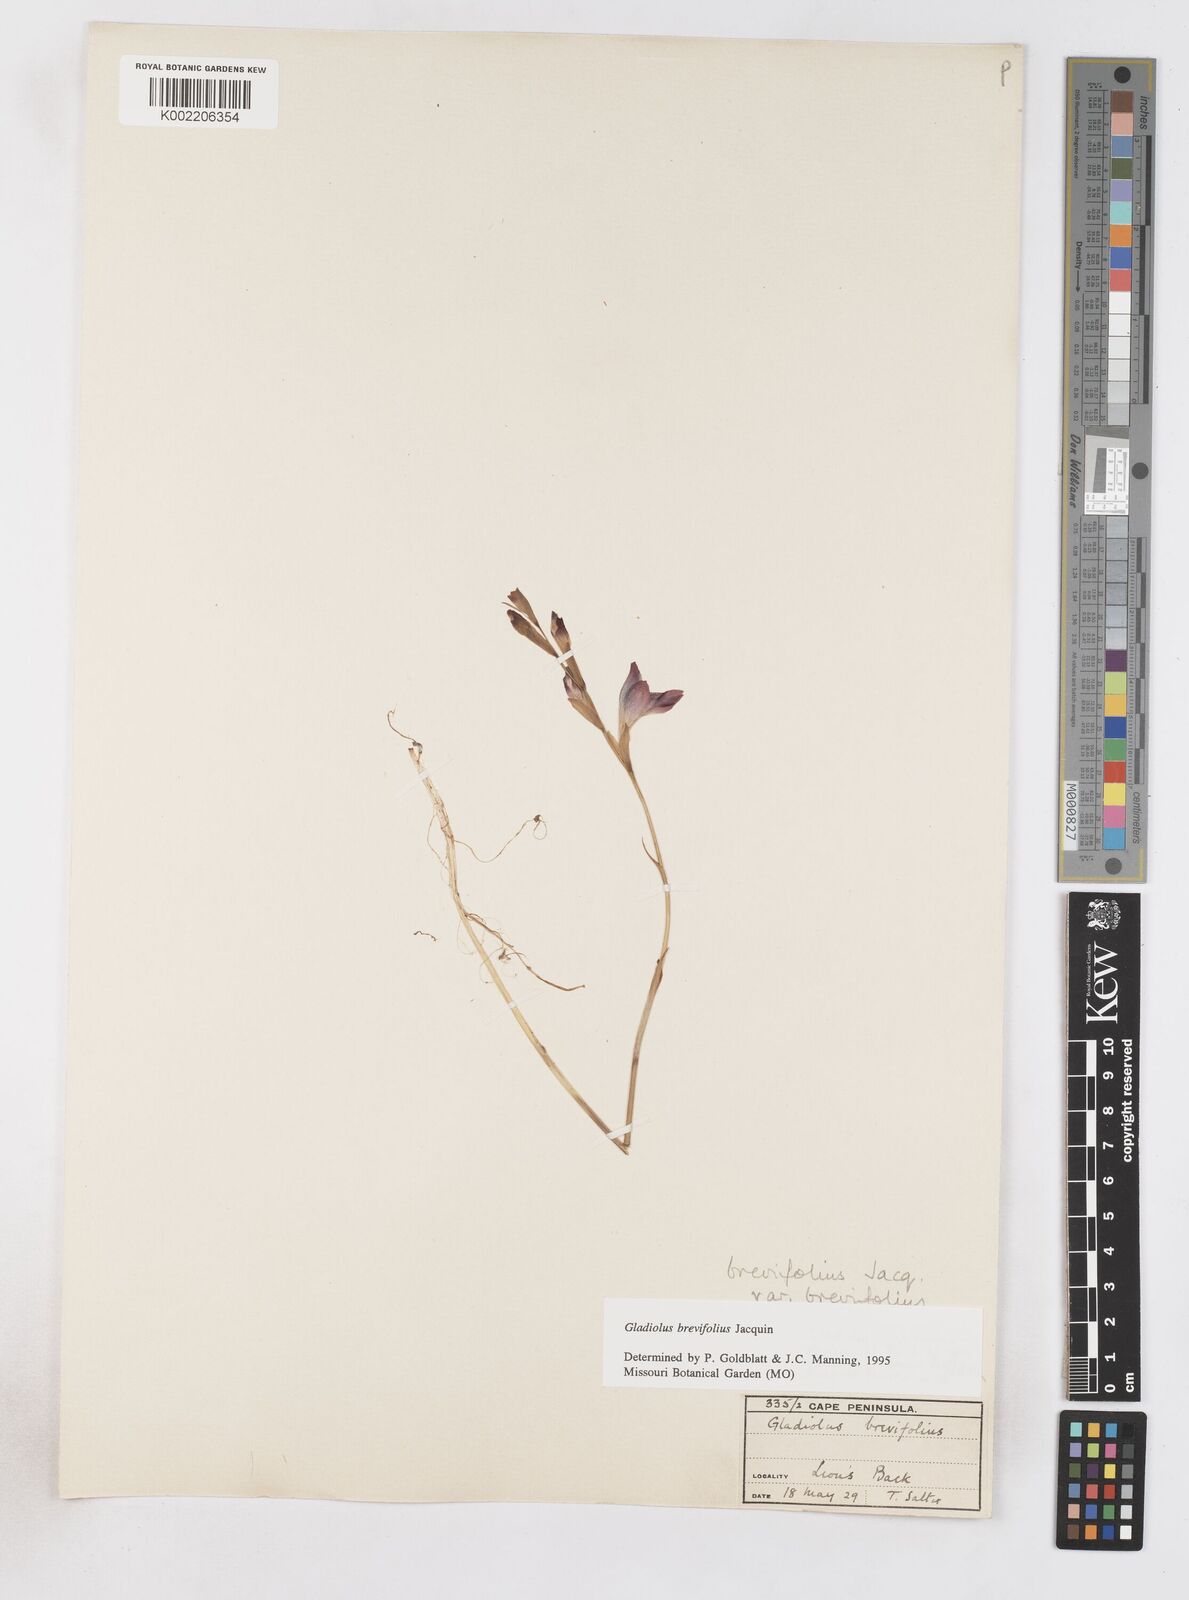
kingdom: Plantae
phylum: Tracheophyta
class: Liliopsida
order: Asparagales
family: Iridaceae
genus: Gladiolus
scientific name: Gladiolus brevifolius
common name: March pypie
